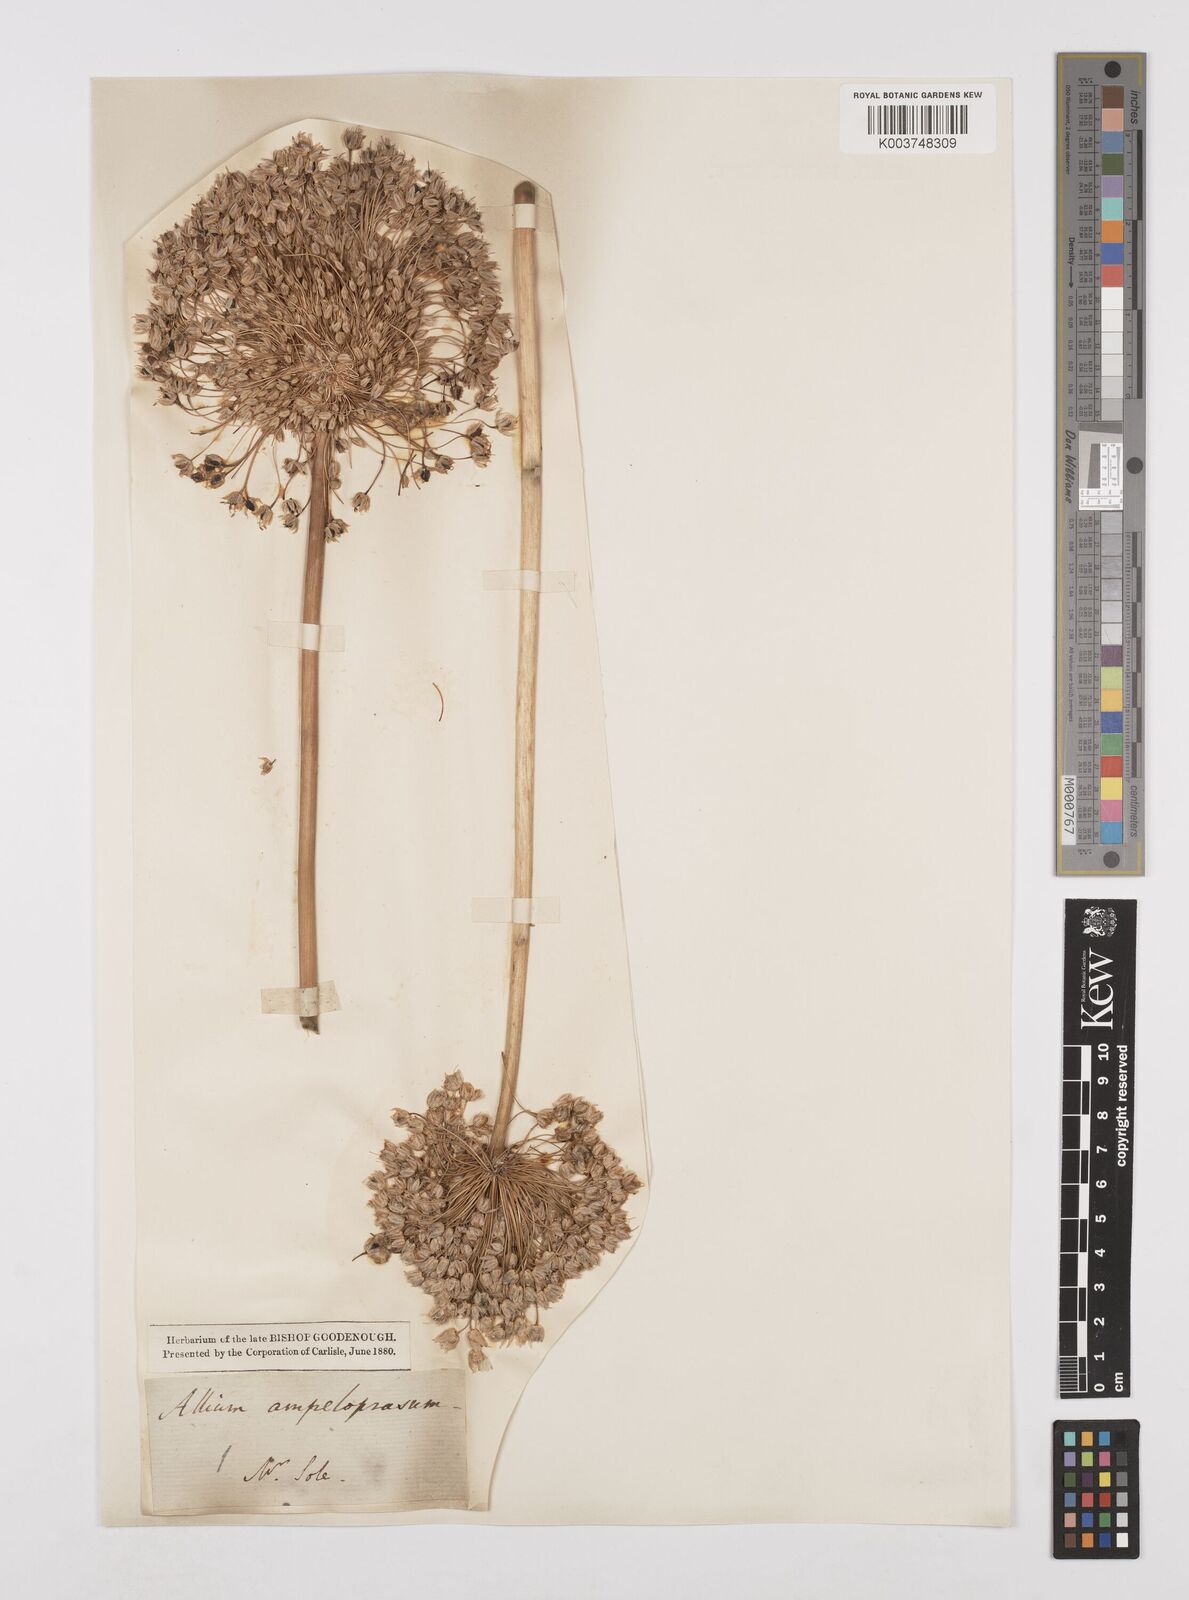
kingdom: Plantae
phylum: Tracheophyta
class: Liliopsida
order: Asparagales
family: Amaryllidaceae
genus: Allium
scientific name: Allium ampeloprasum
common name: Wild leek
